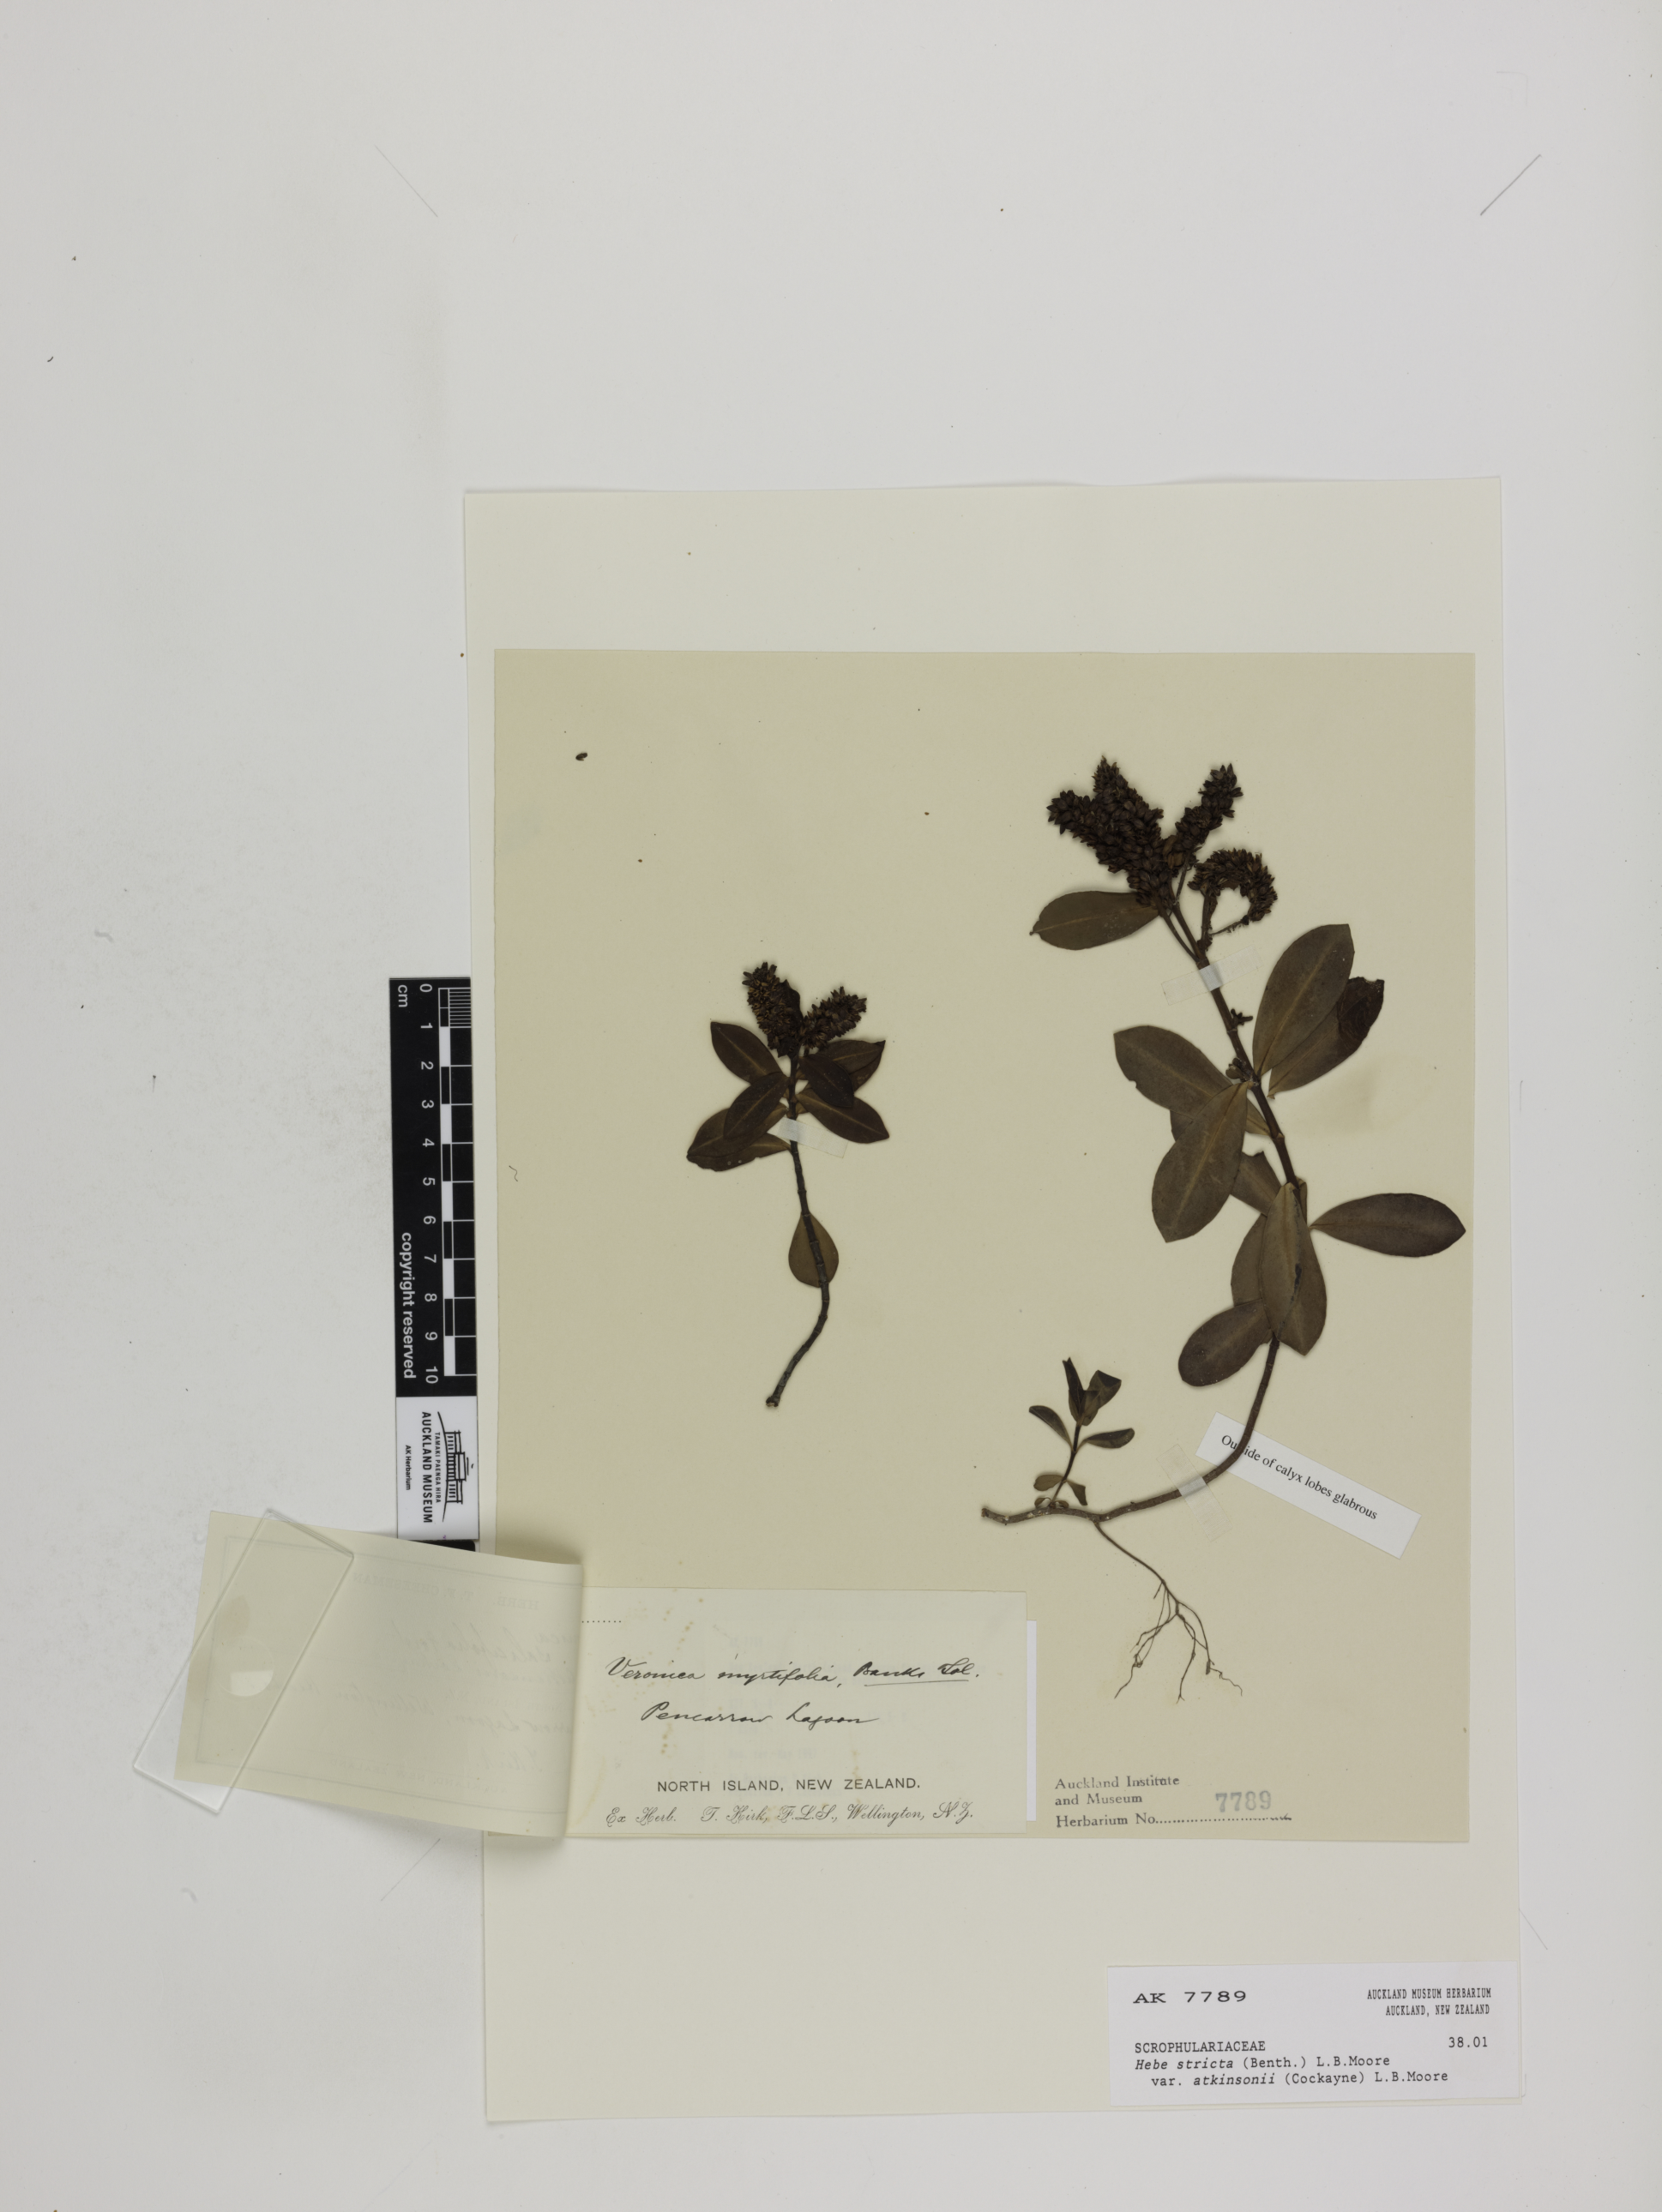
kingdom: Plantae
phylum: Tracheophyta
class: Magnoliopsida
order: Lamiales
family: Plantaginaceae
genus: Veronica
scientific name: Veronica stricta
